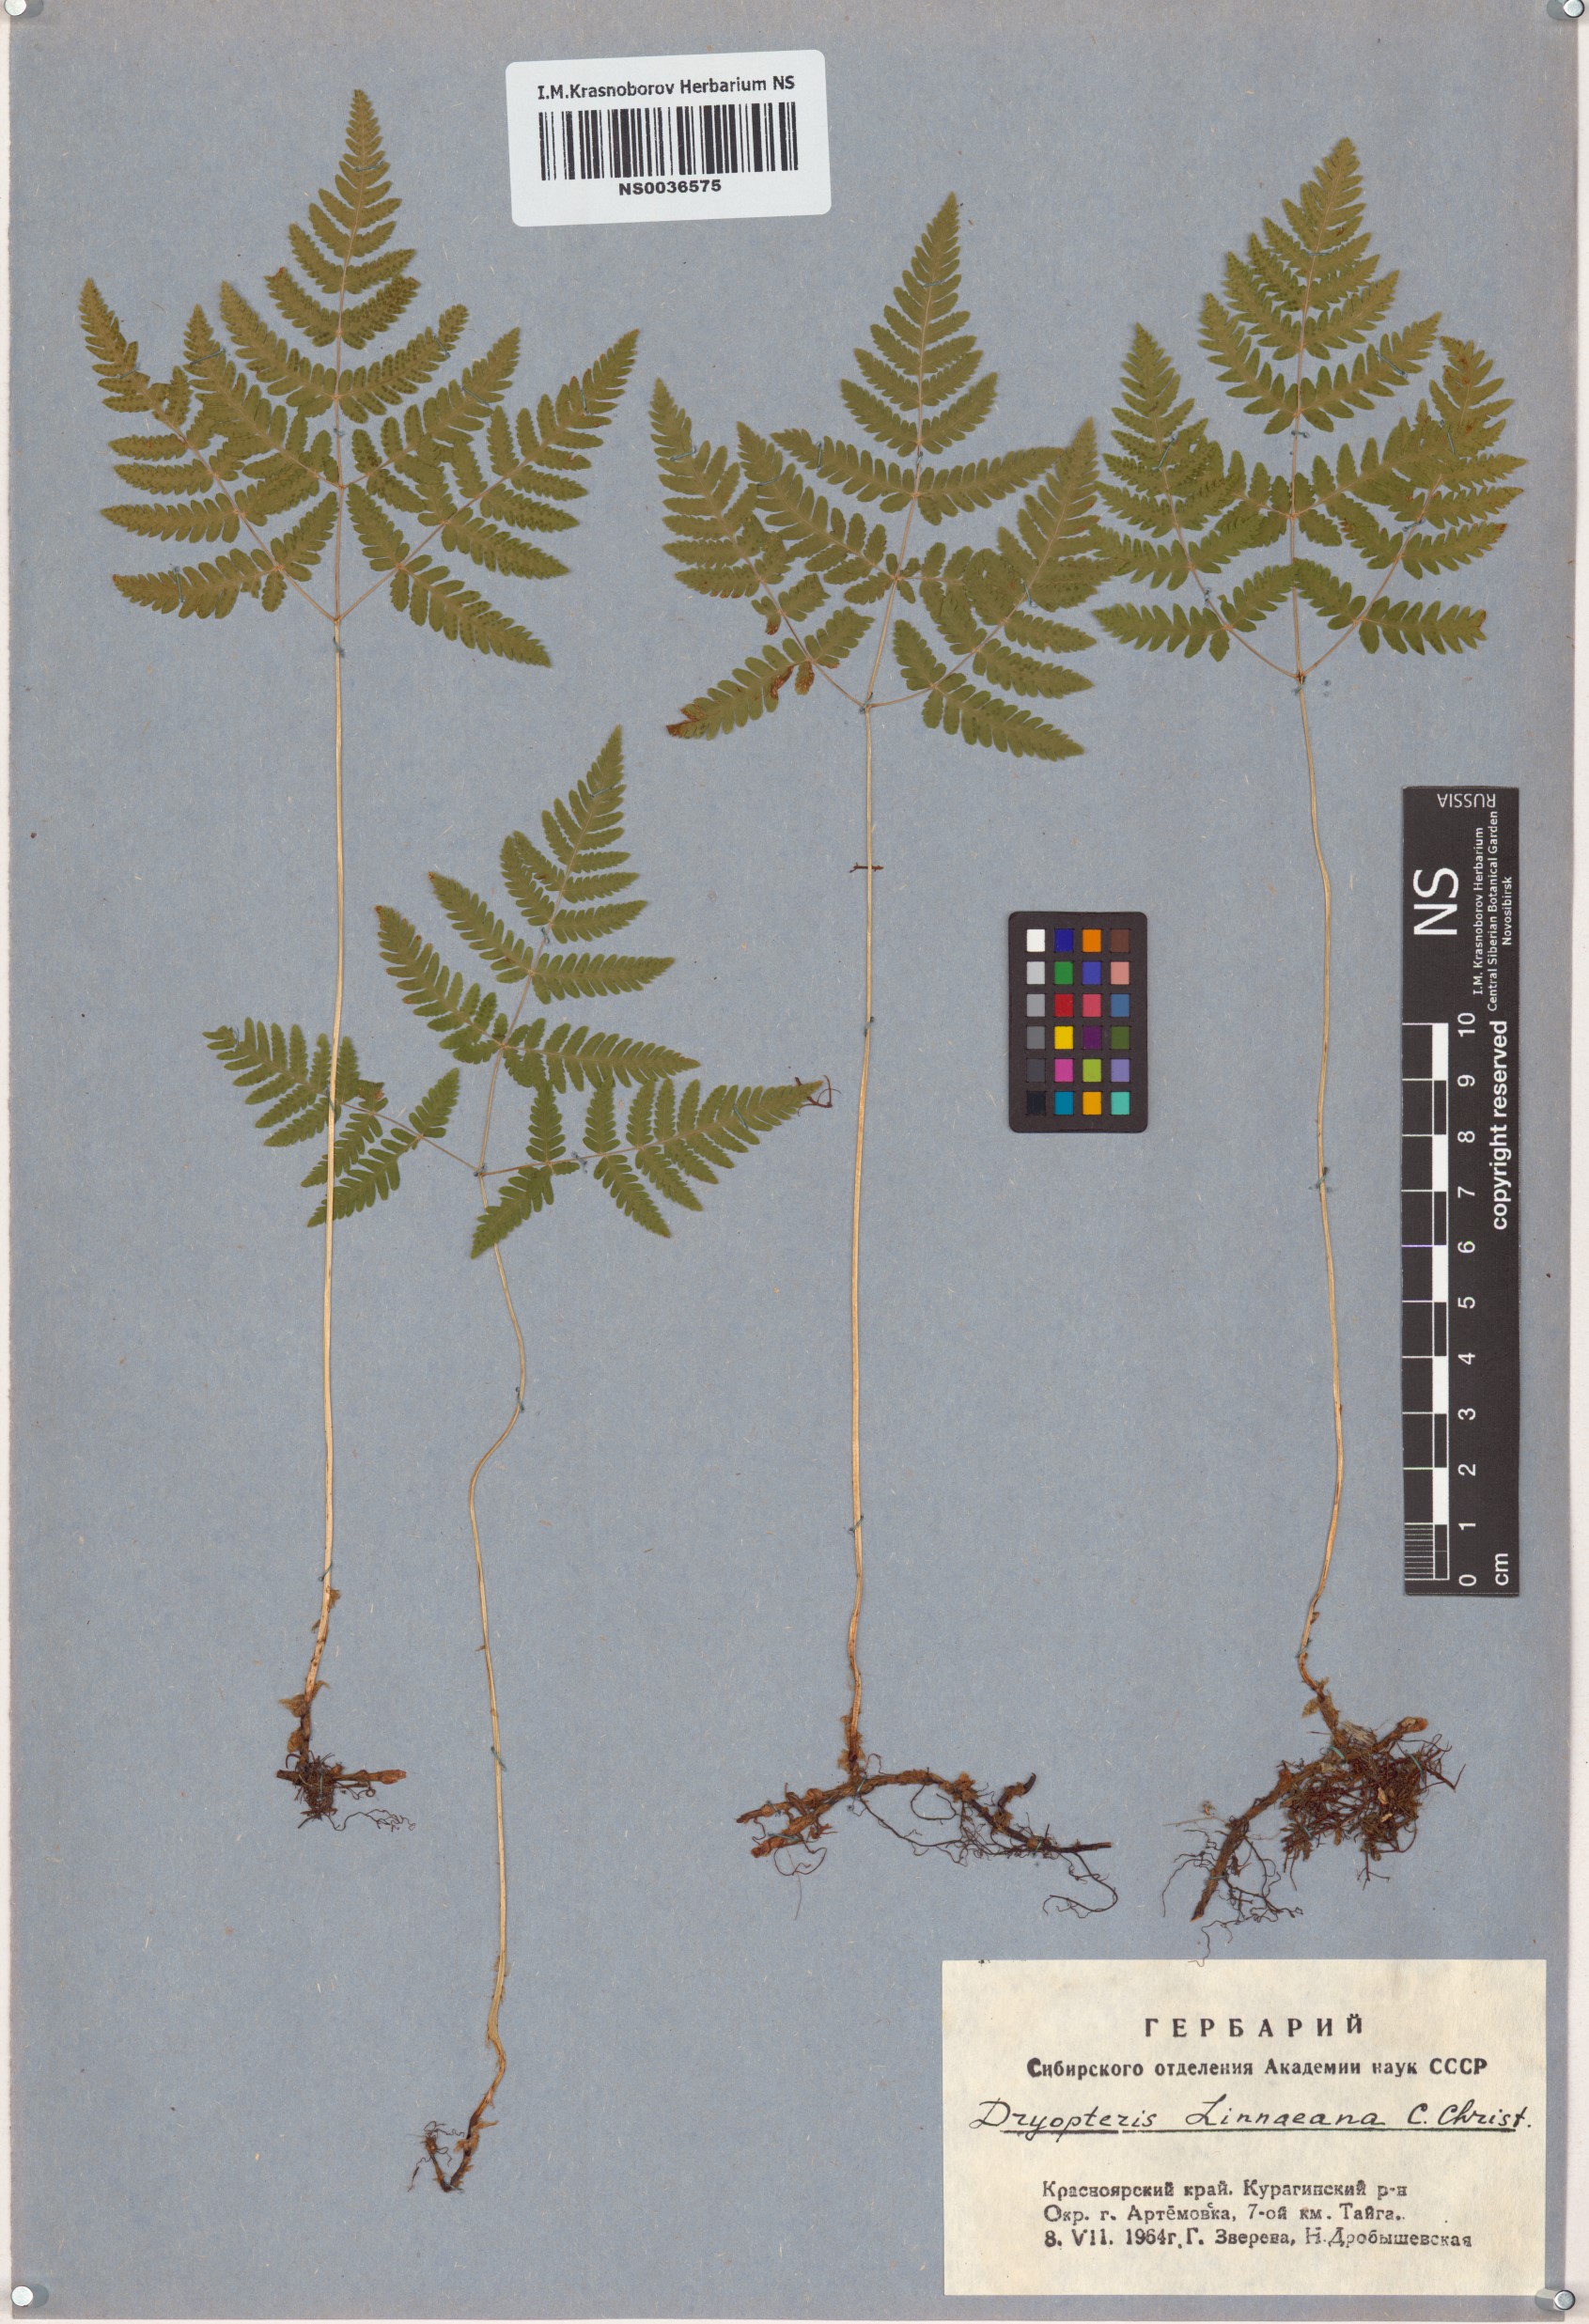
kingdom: Plantae
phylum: Tracheophyta
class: Polypodiopsida
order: Polypodiales
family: Cystopteridaceae
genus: Gymnocarpium
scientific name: Gymnocarpium dryopteris
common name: Oak fern
